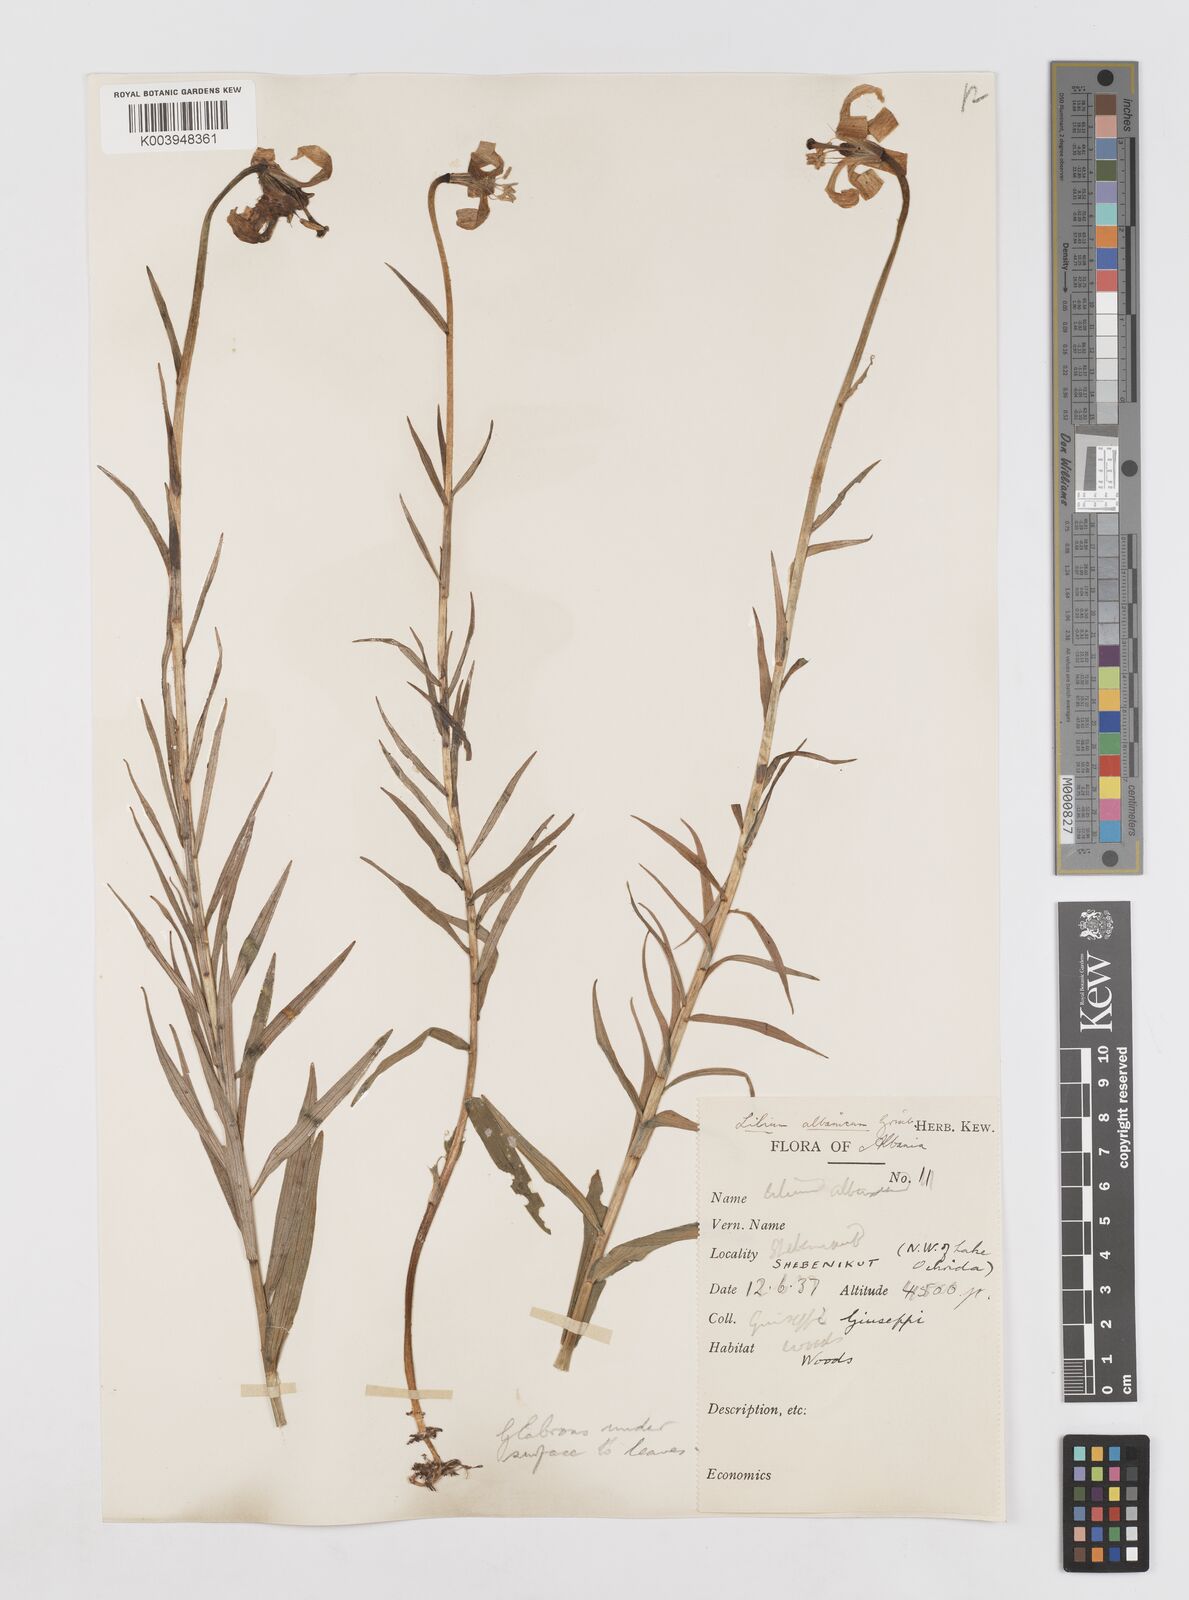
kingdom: Plantae
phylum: Tracheophyta
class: Liliopsida
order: Liliales
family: Liliaceae
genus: Lilium
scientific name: Lilium albanicum
